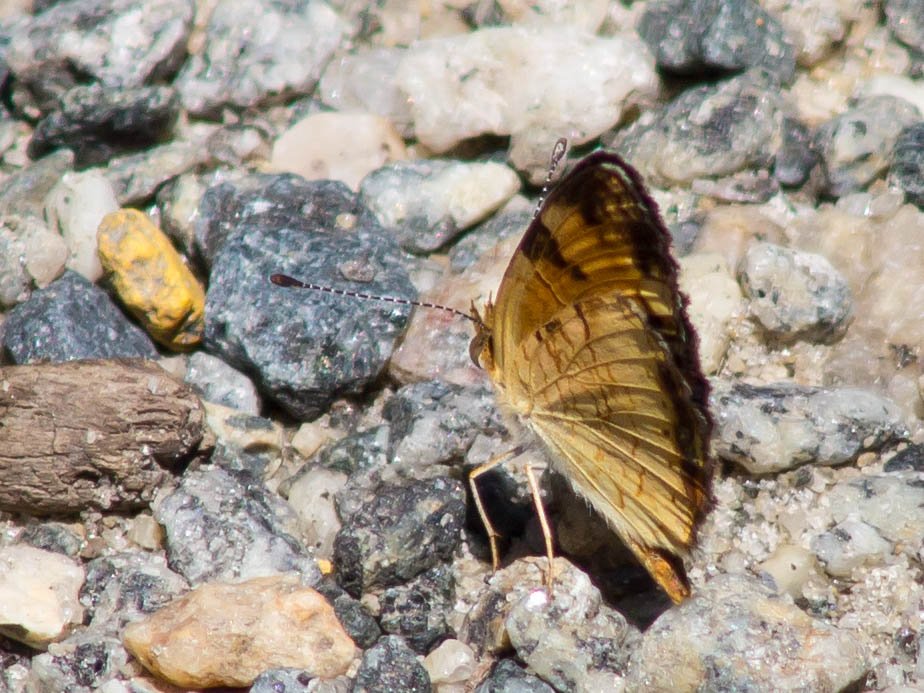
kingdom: Animalia
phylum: Arthropoda
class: Insecta
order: Lepidoptera
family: Nymphalidae
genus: Phyciodes
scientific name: Phyciodes tharos
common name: Pearl Crescent
